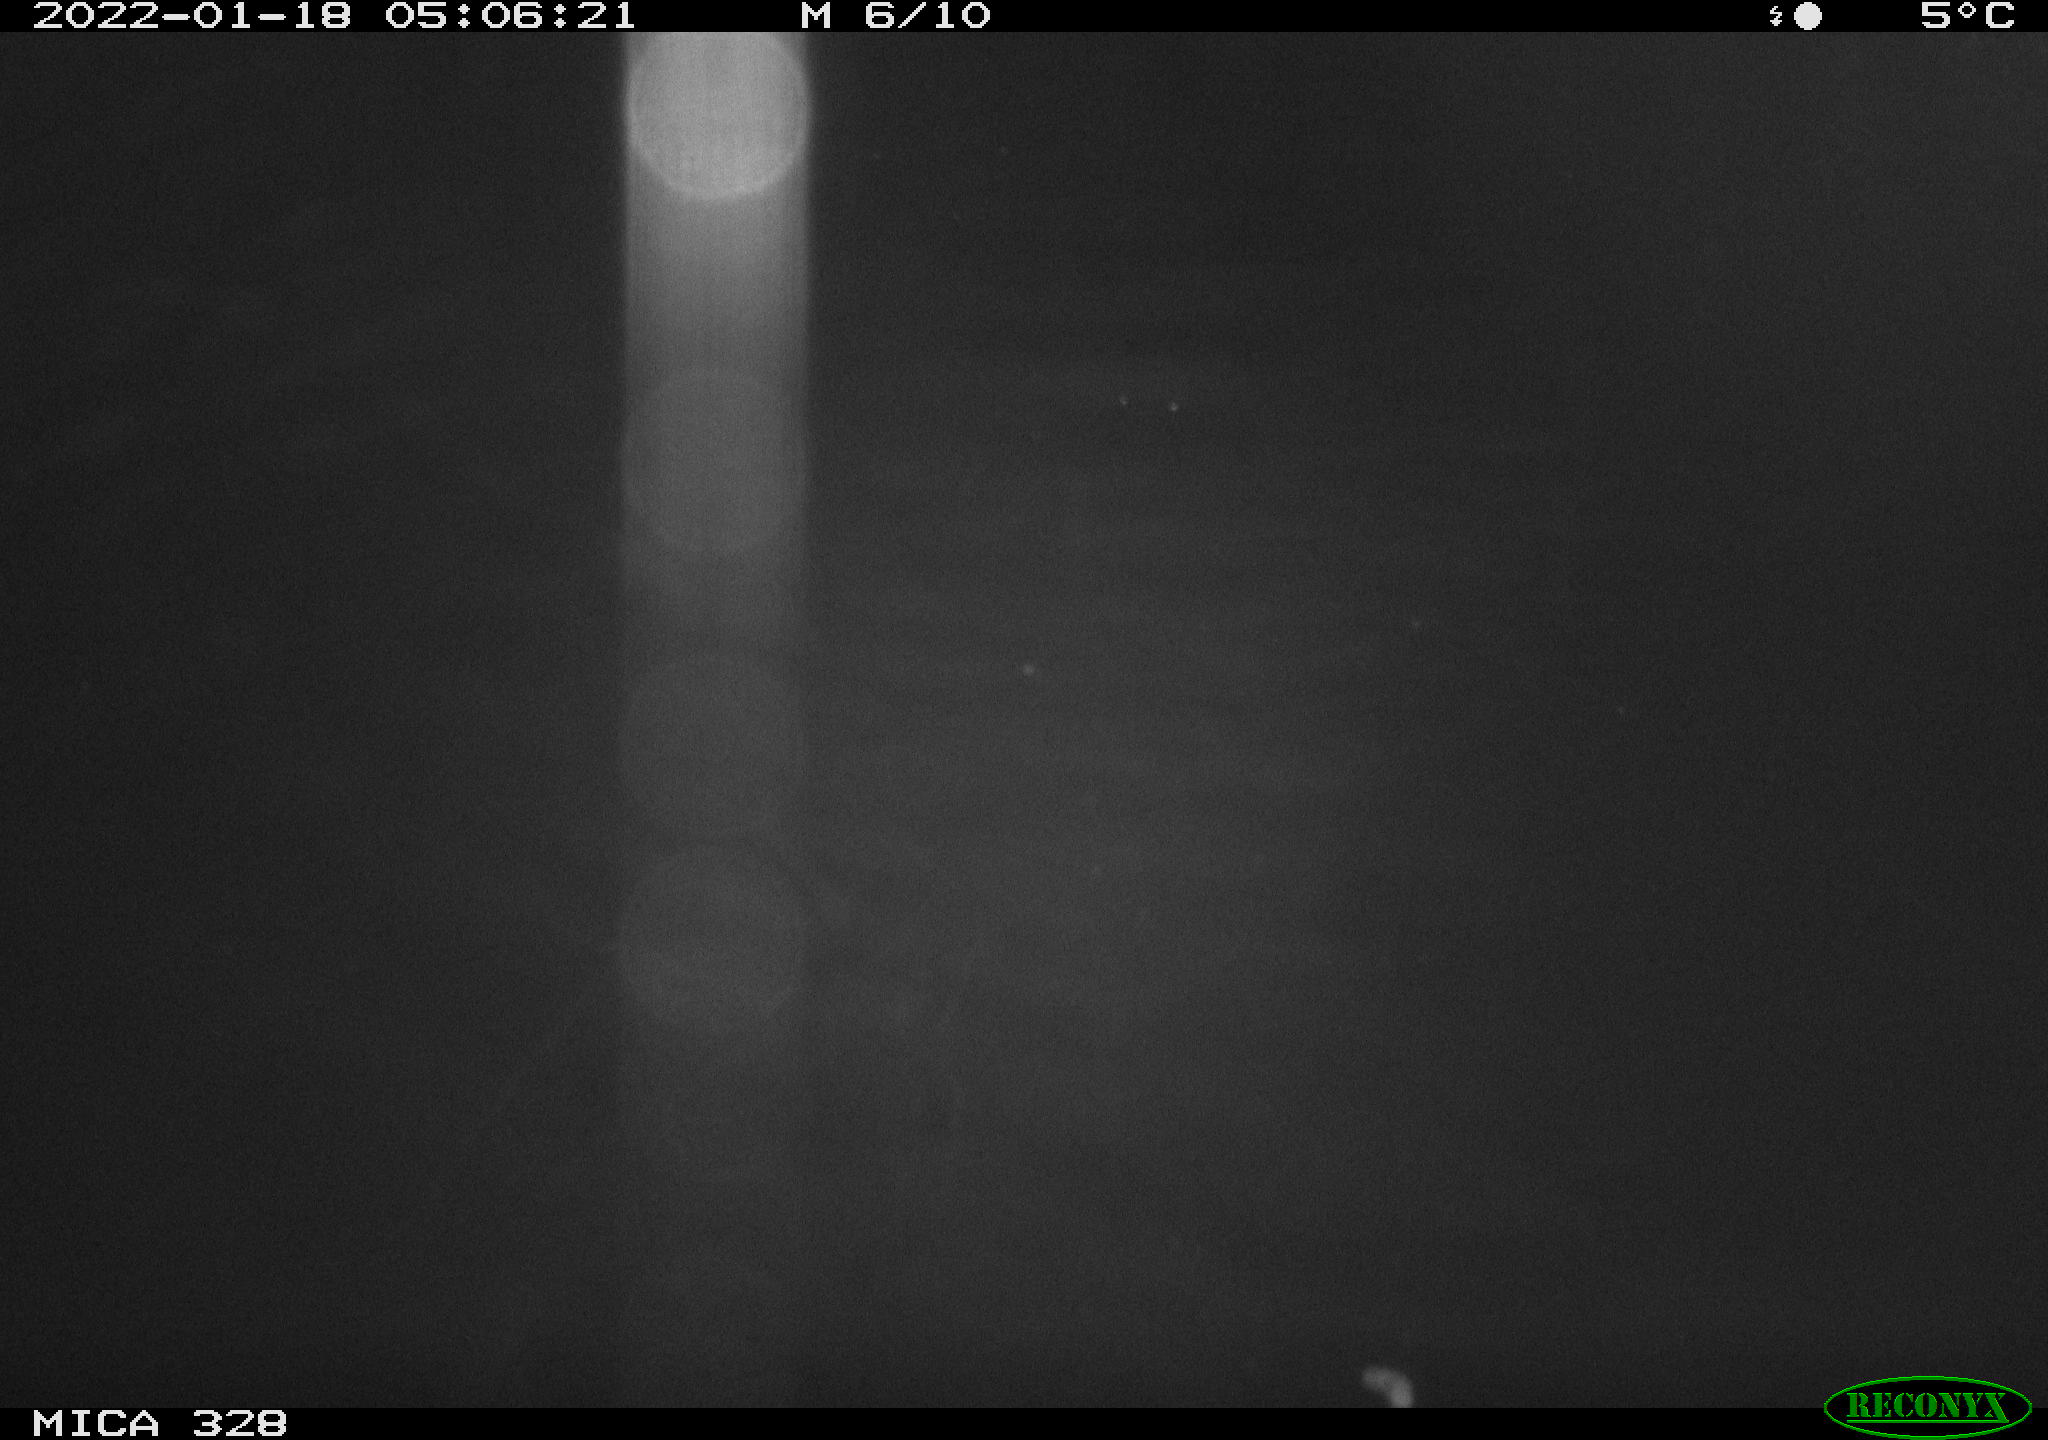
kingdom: Animalia
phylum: Chordata
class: Mammalia
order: Rodentia
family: Cricetidae
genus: Ondatra
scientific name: Ondatra zibethicus
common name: Muskrat
